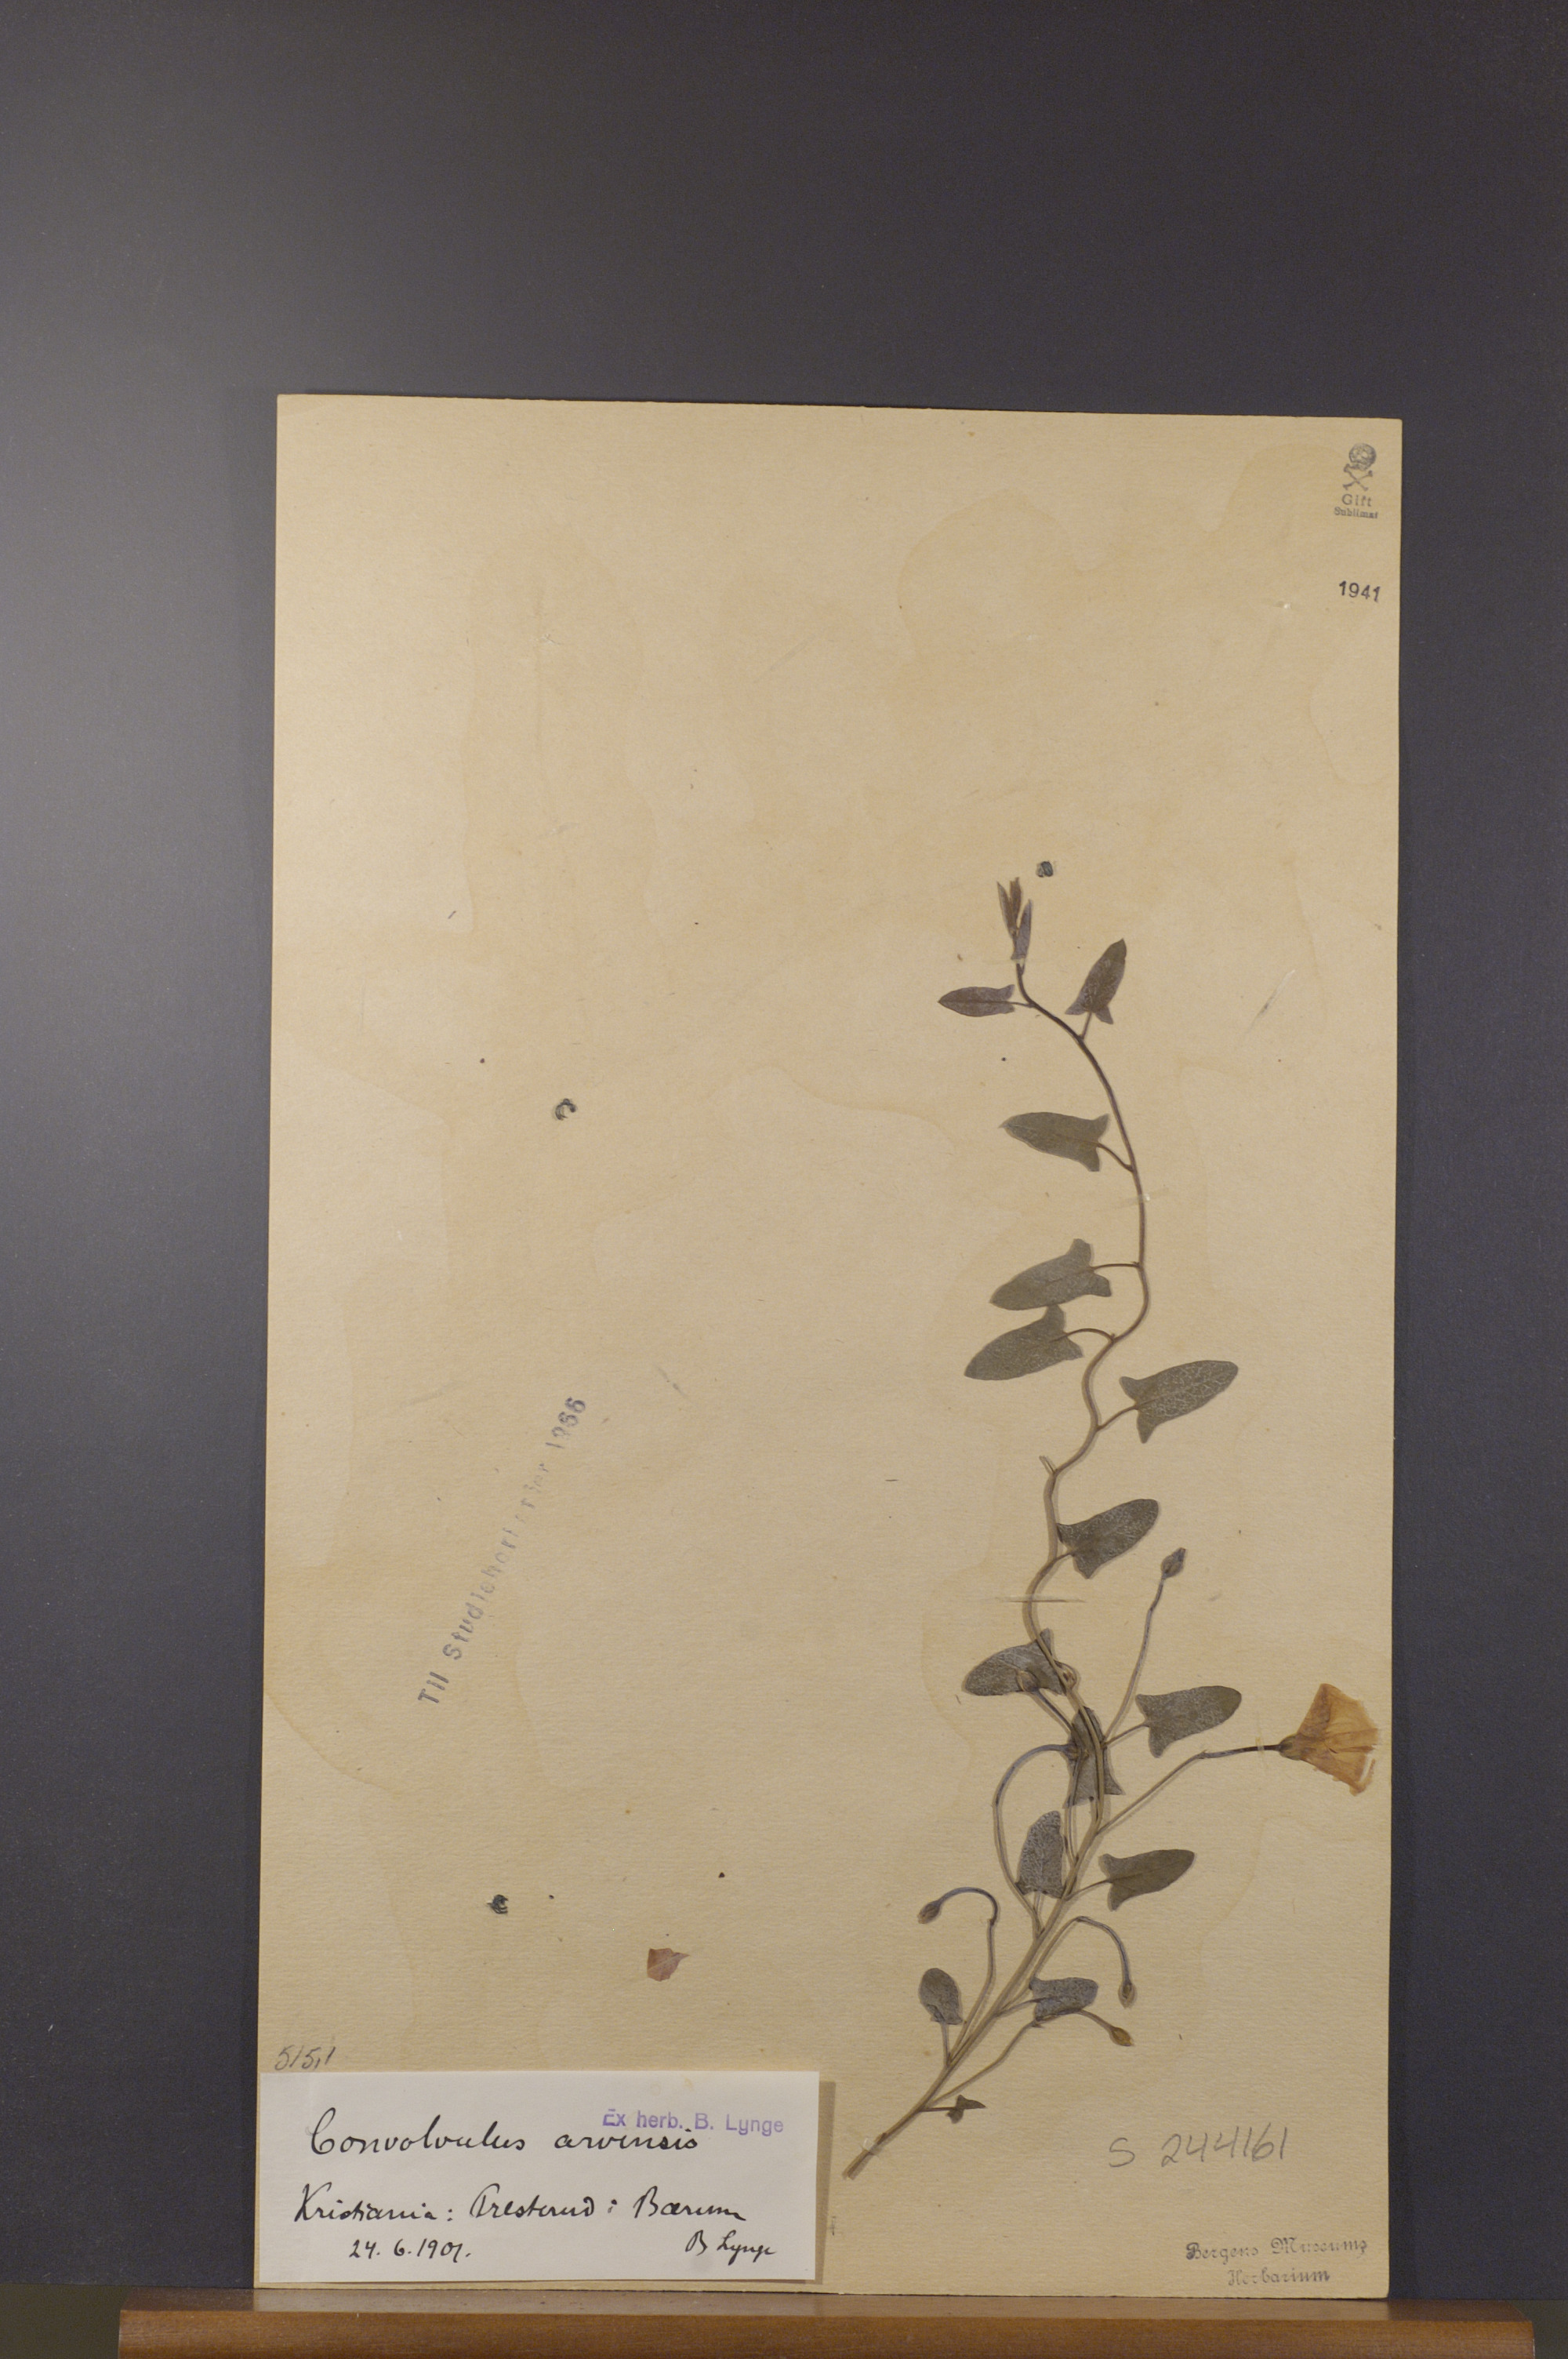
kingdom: Plantae
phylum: Tracheophyta
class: Magnoliopsida
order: Solanales
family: Convolvulaceae
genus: Convolvulus
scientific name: Convolvulus arvensis
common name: Field bindweed
